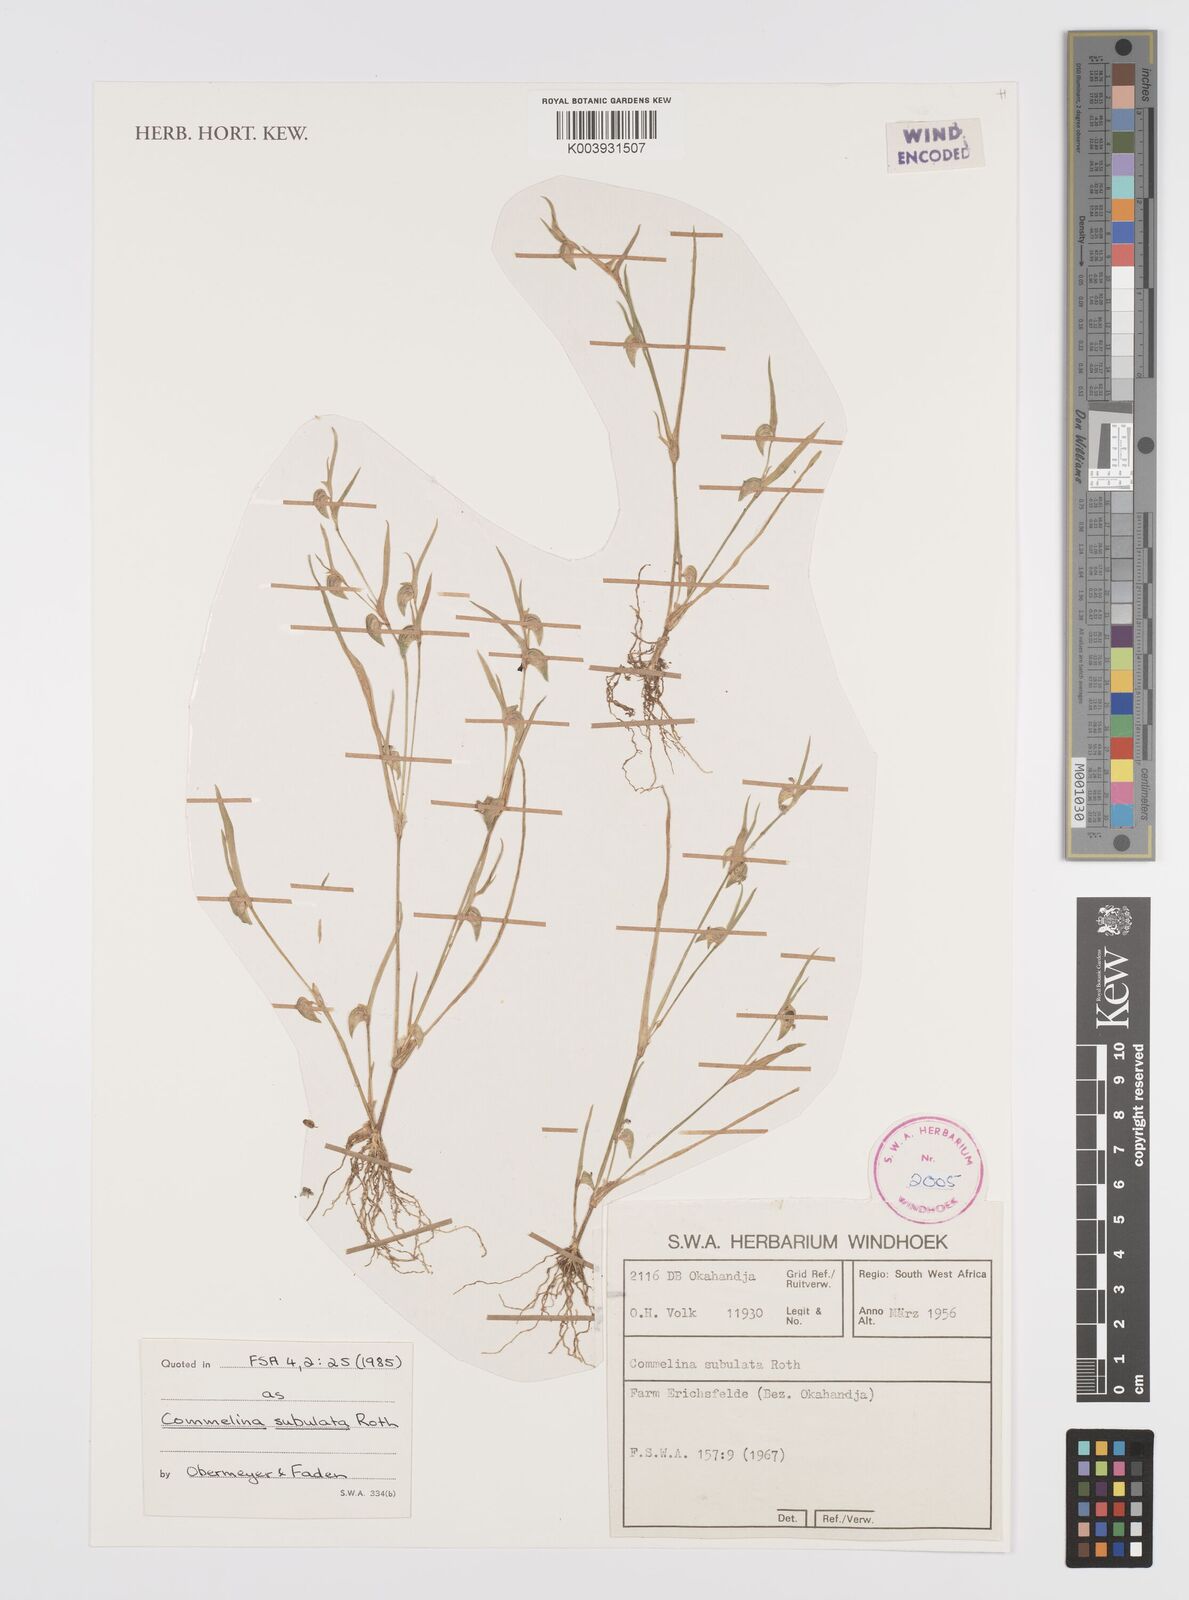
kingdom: Plantae
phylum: Tracheophyta
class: Liliopsida
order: Commelinales
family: Commelinaceae
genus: Commelina
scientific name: Commelina subulata
